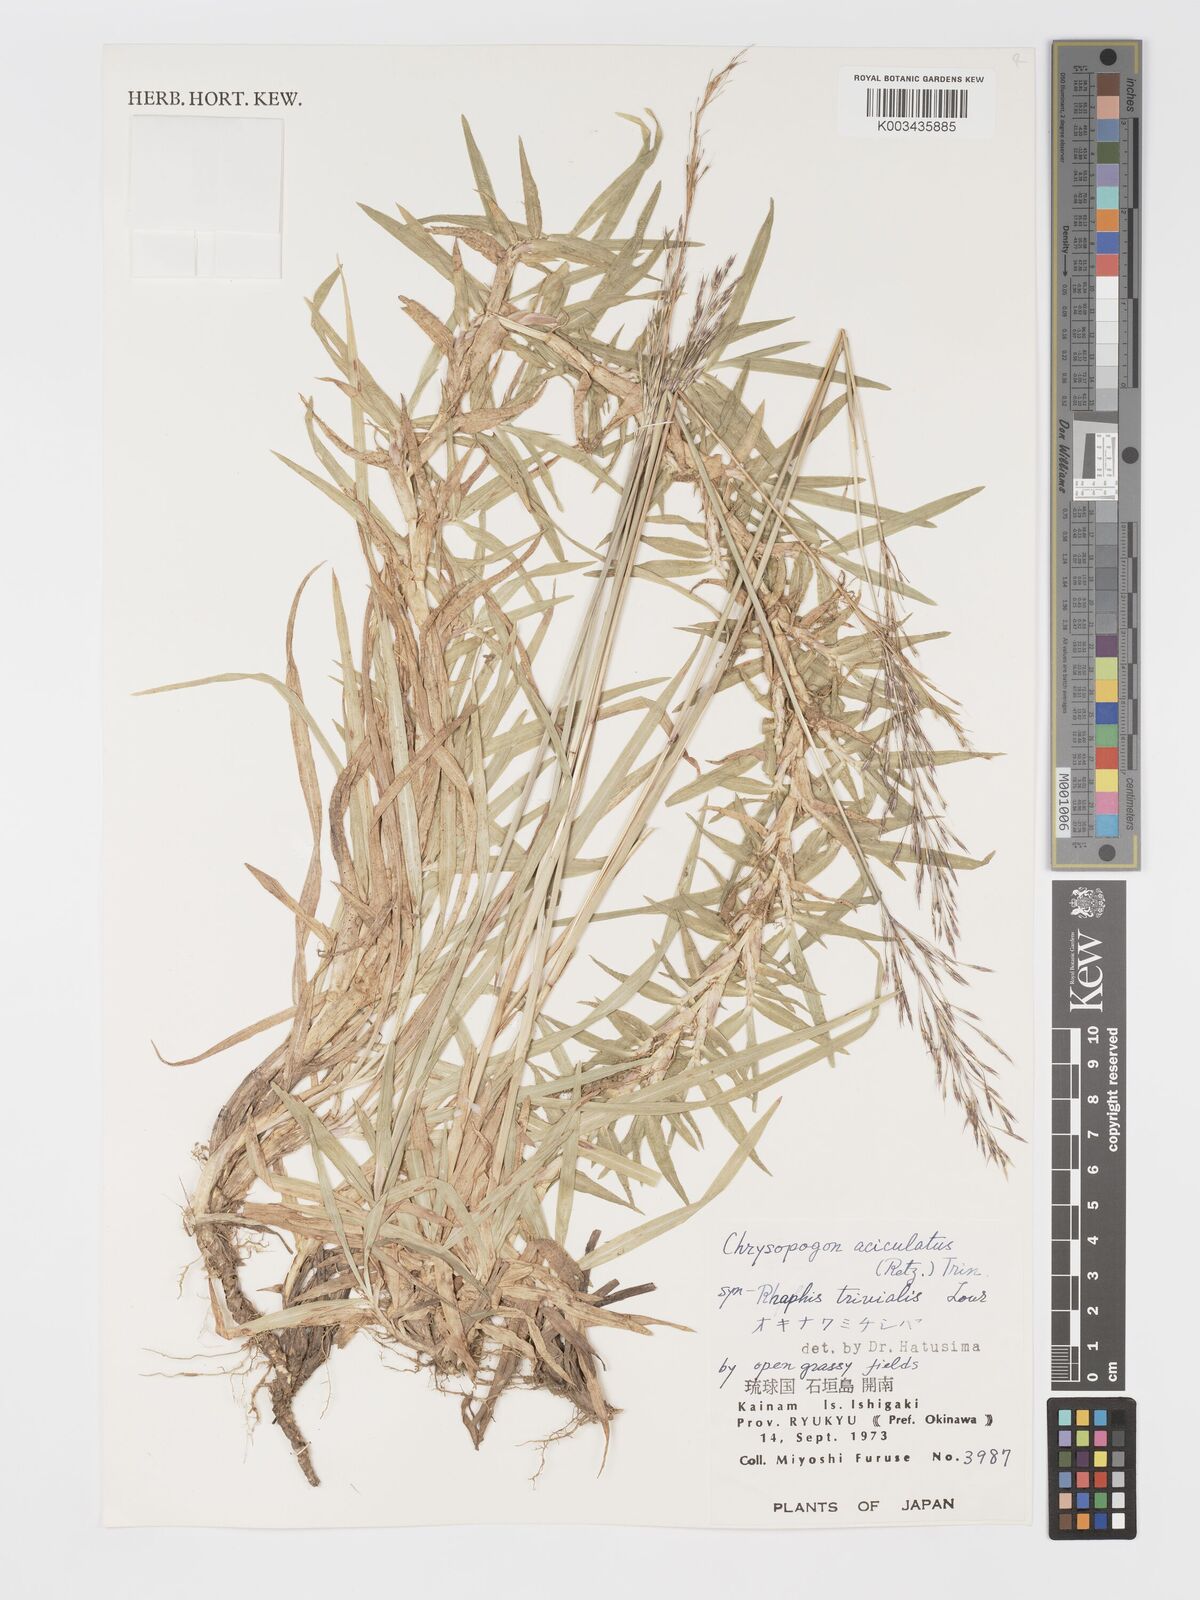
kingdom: Plantae
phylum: Tracheophyta
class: Liliopsida
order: Poales
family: Poaceae
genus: Chrysopogon
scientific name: Chrysopogon aciculatus
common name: Pilipiliula
